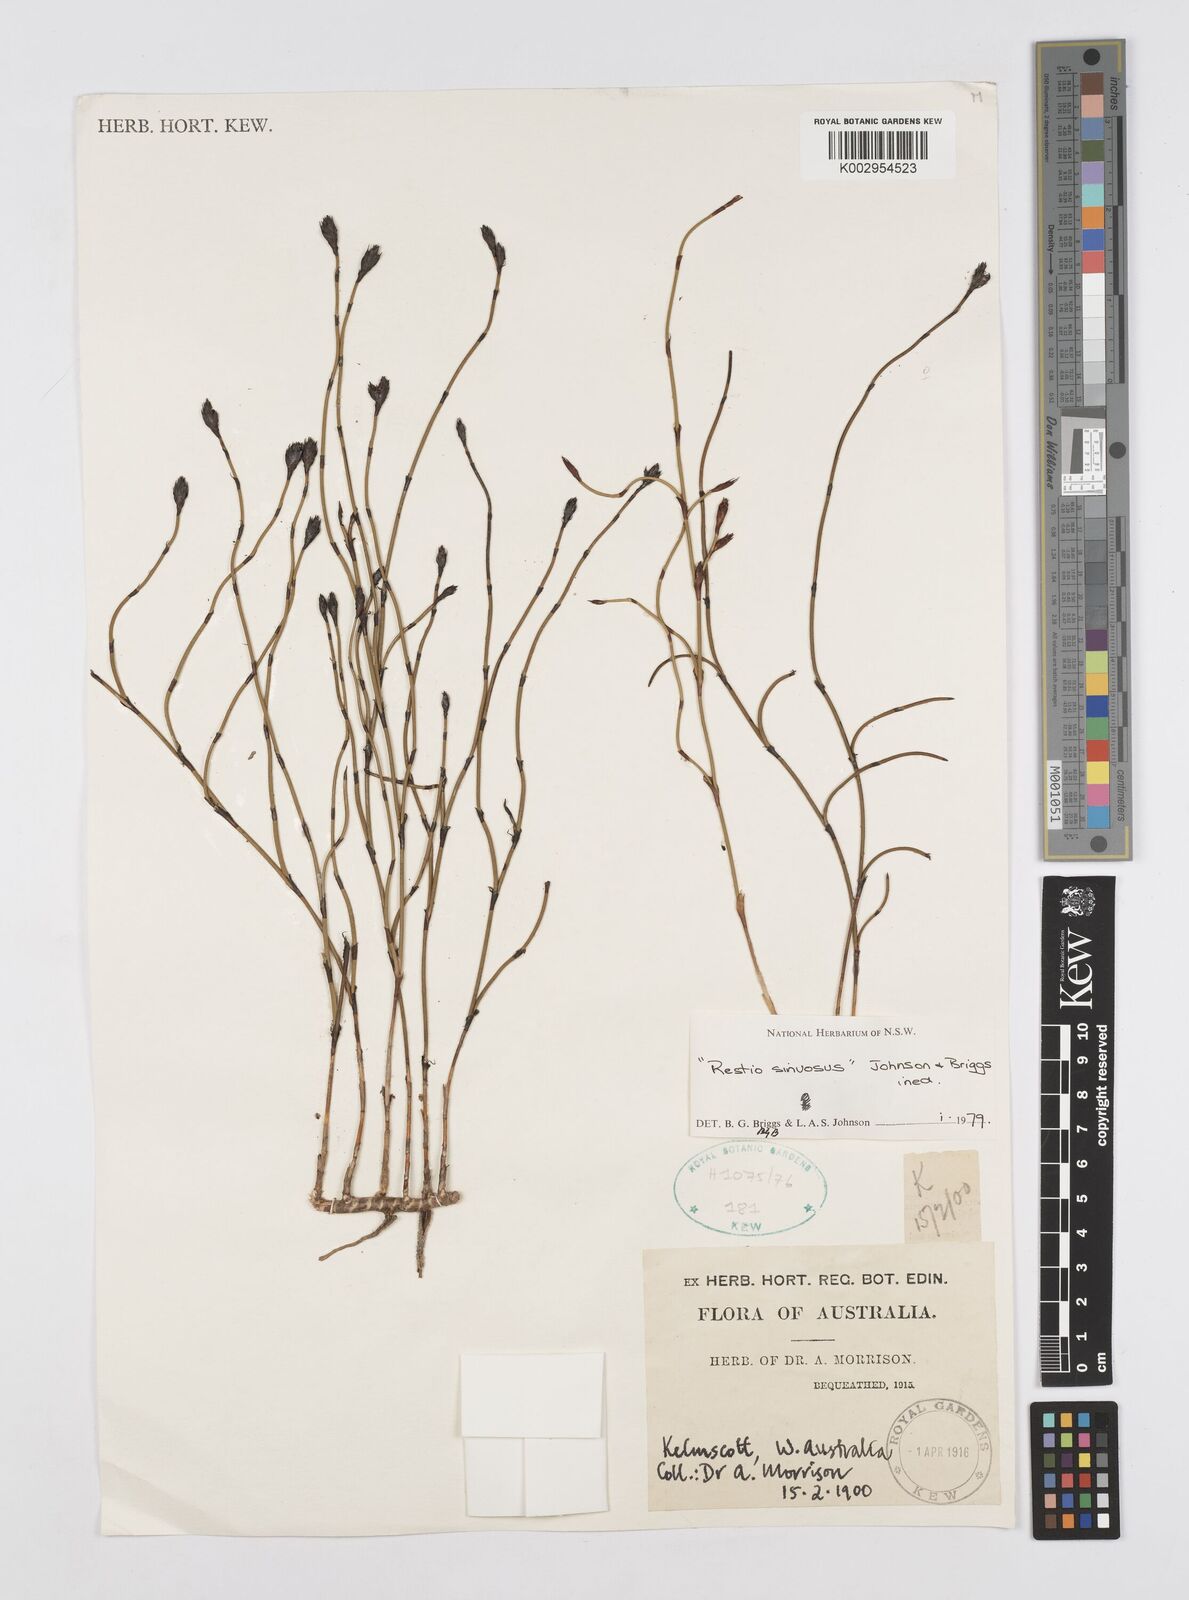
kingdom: Plantae
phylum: Tracheophyta
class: Liliopsida
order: Poales
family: Restionaceae
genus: Chordifex
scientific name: Chordifex sinuosus
